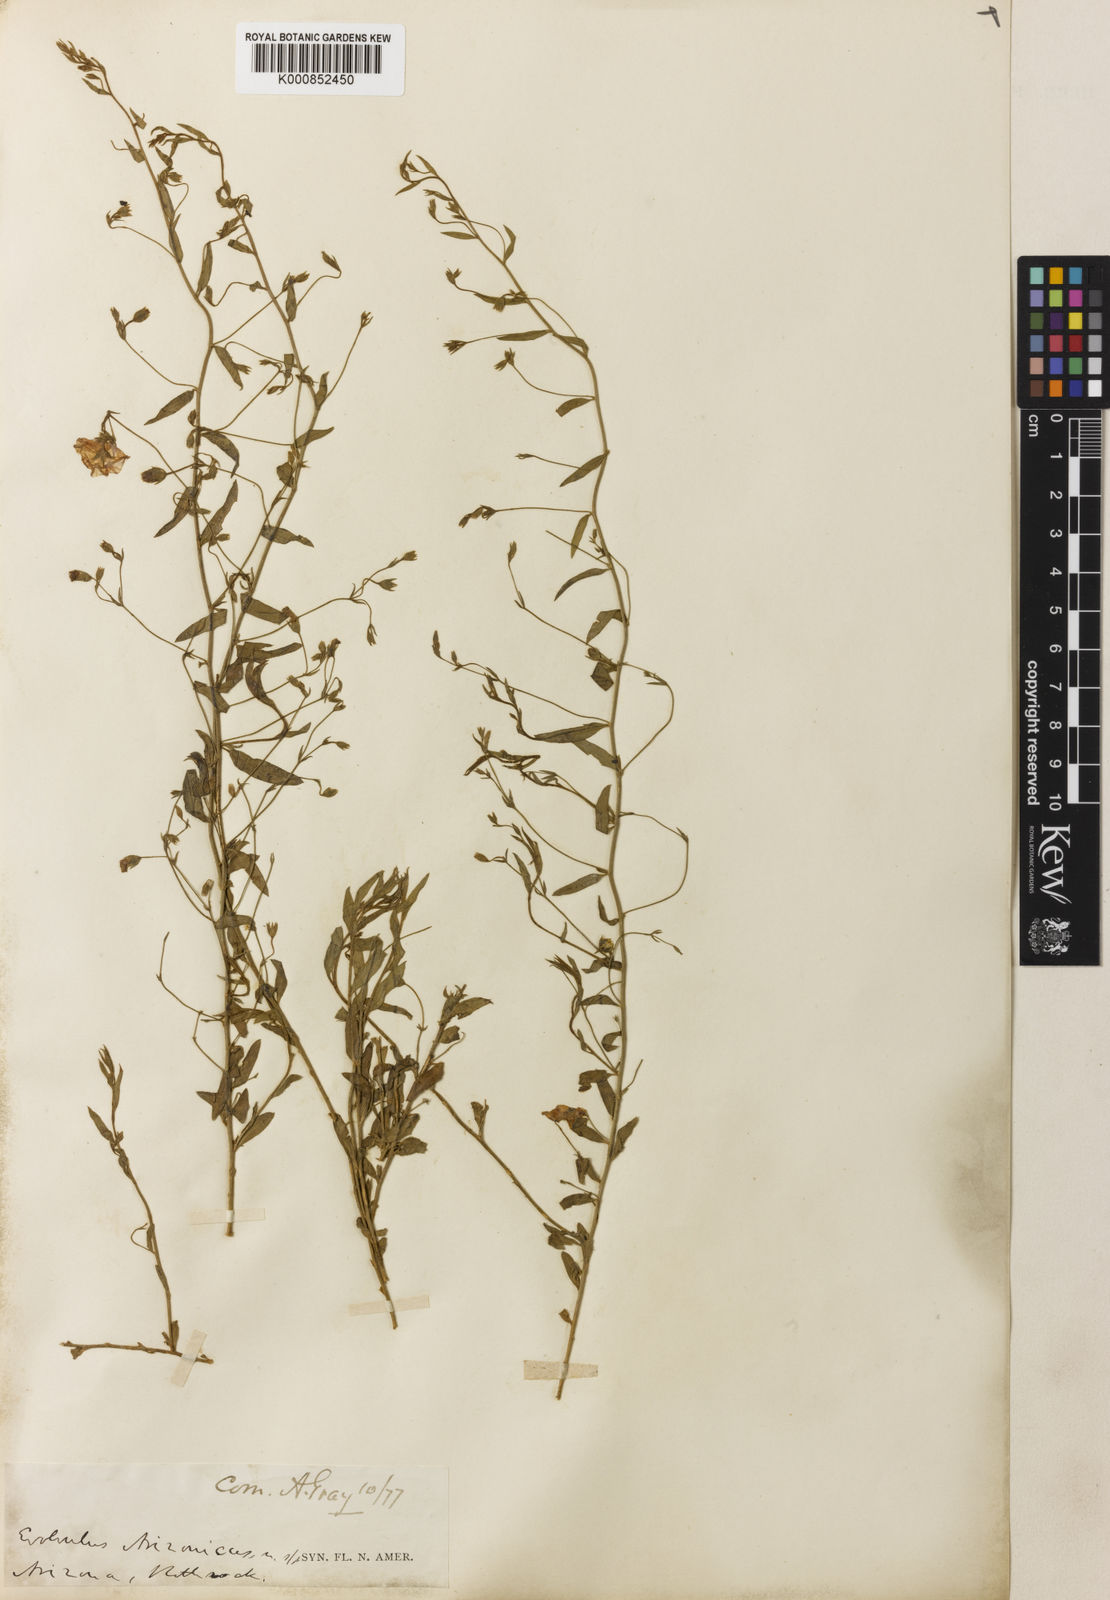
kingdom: Plantae
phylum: Tracheophyta
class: Magnoliopsida
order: Solanales
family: Convolvulaceae
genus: Evolvulus
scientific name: Evolvulus arizonicus
